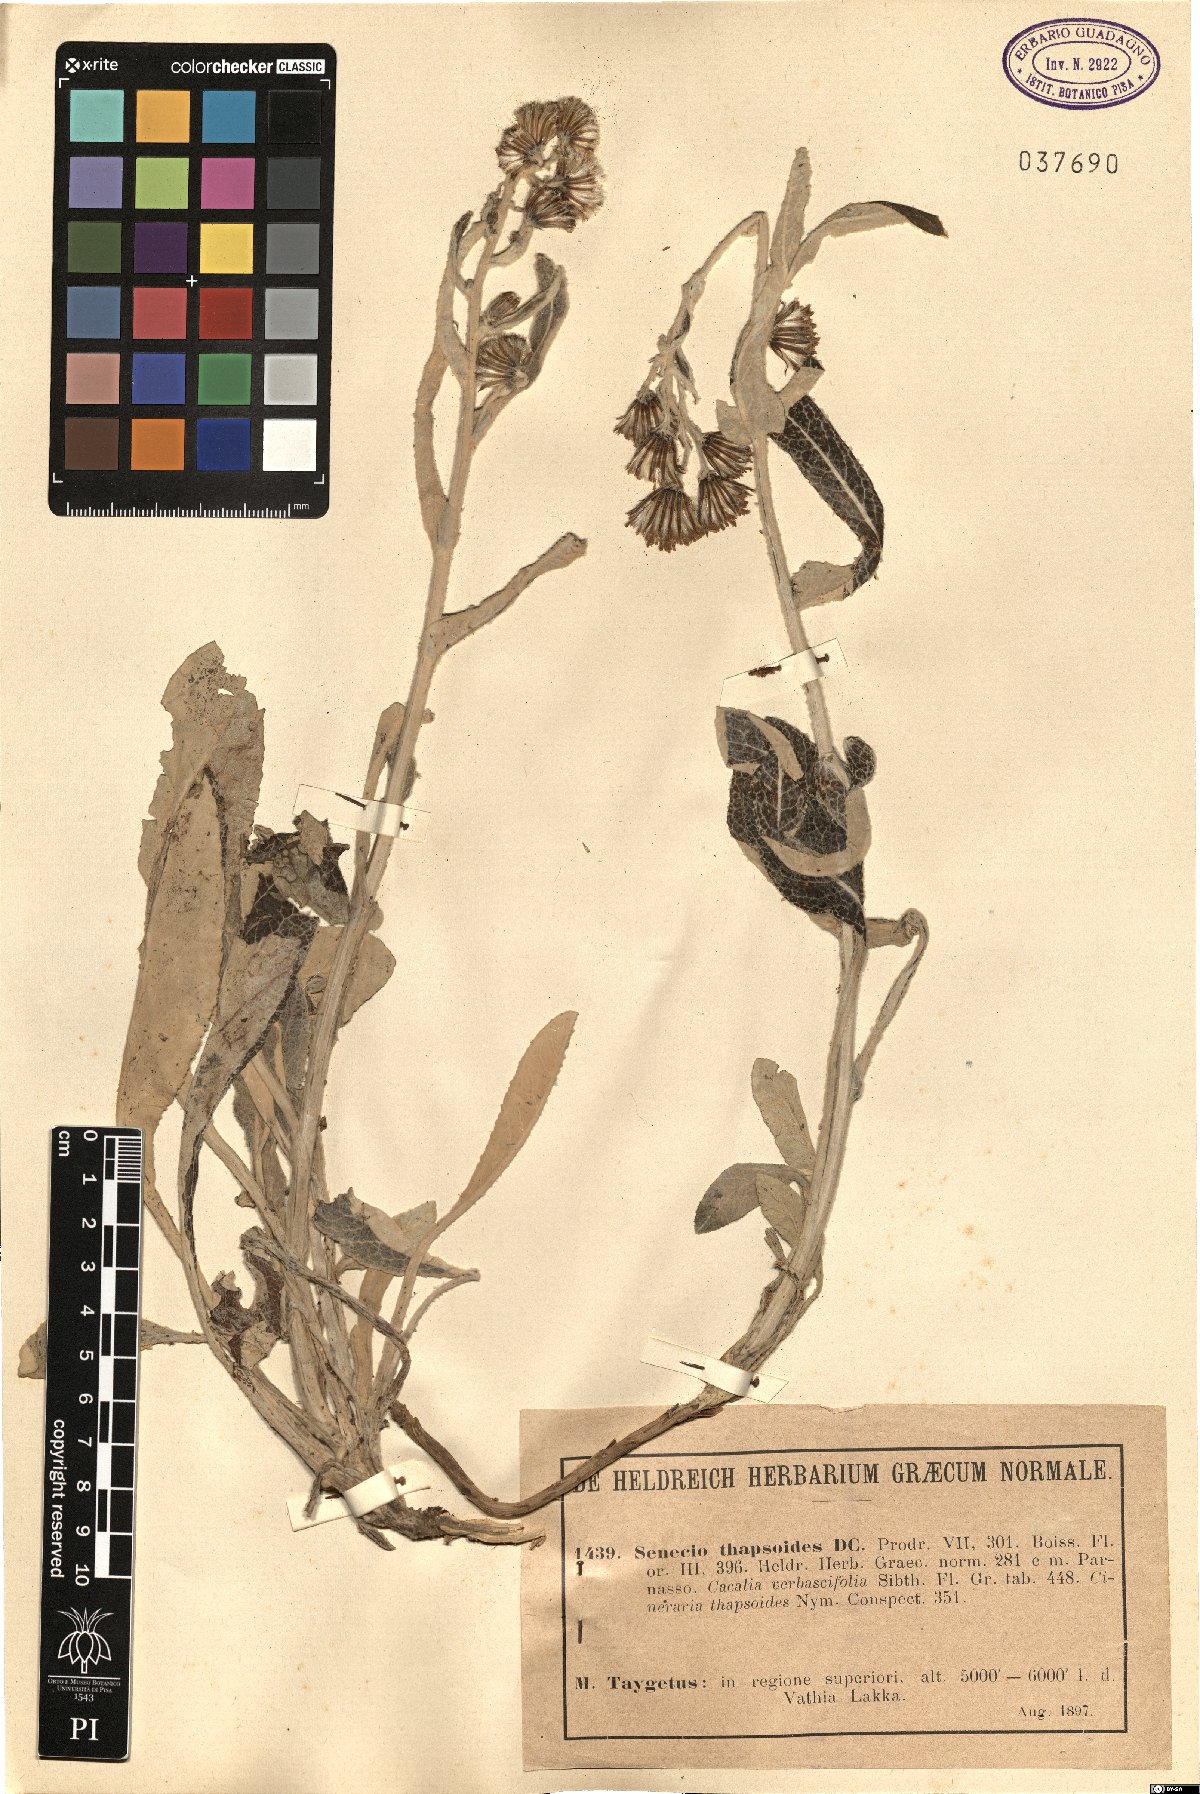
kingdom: Plantae
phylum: Tracheophyta
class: Magnoliopsida
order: Asterales
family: Asteraceae
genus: Senecio
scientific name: Senecio thapsoides
